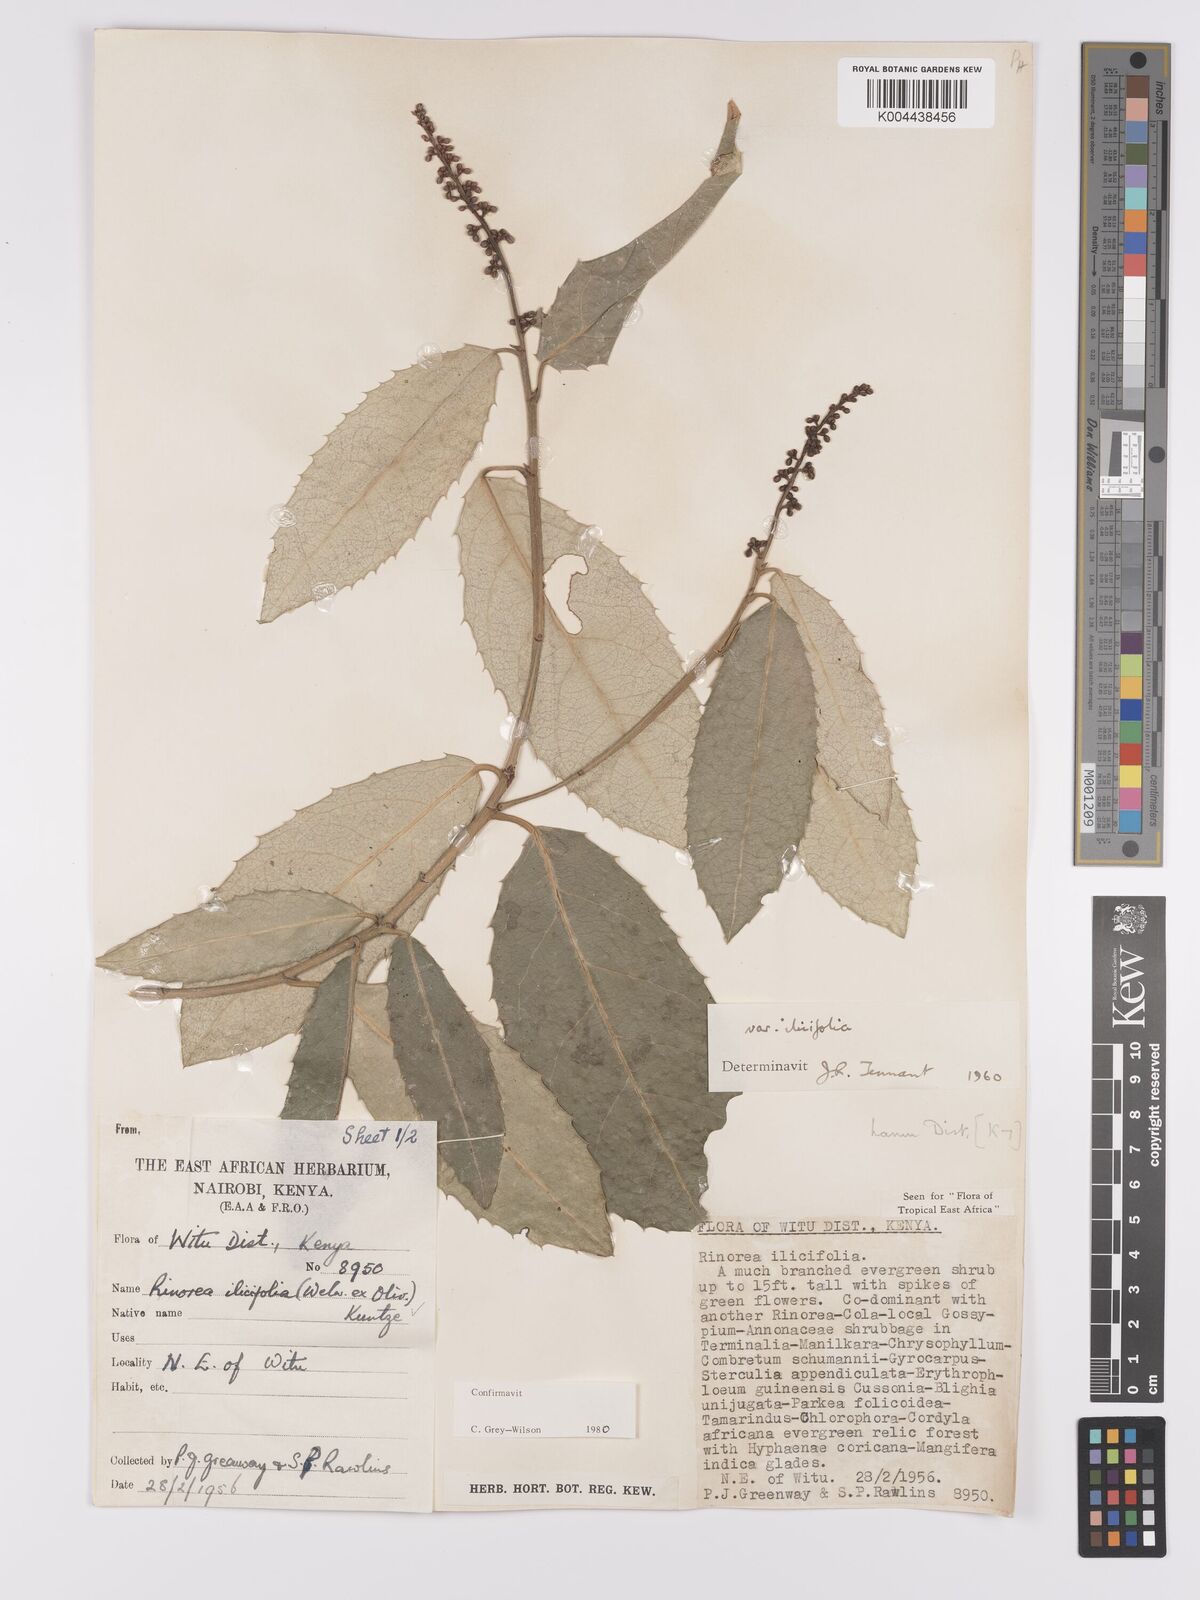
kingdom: Plantae
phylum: Tracheophyta
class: Magnoliopsida
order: Malpighiales
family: Violaceae
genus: Rinorea
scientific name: Rinorea ilicifolia
